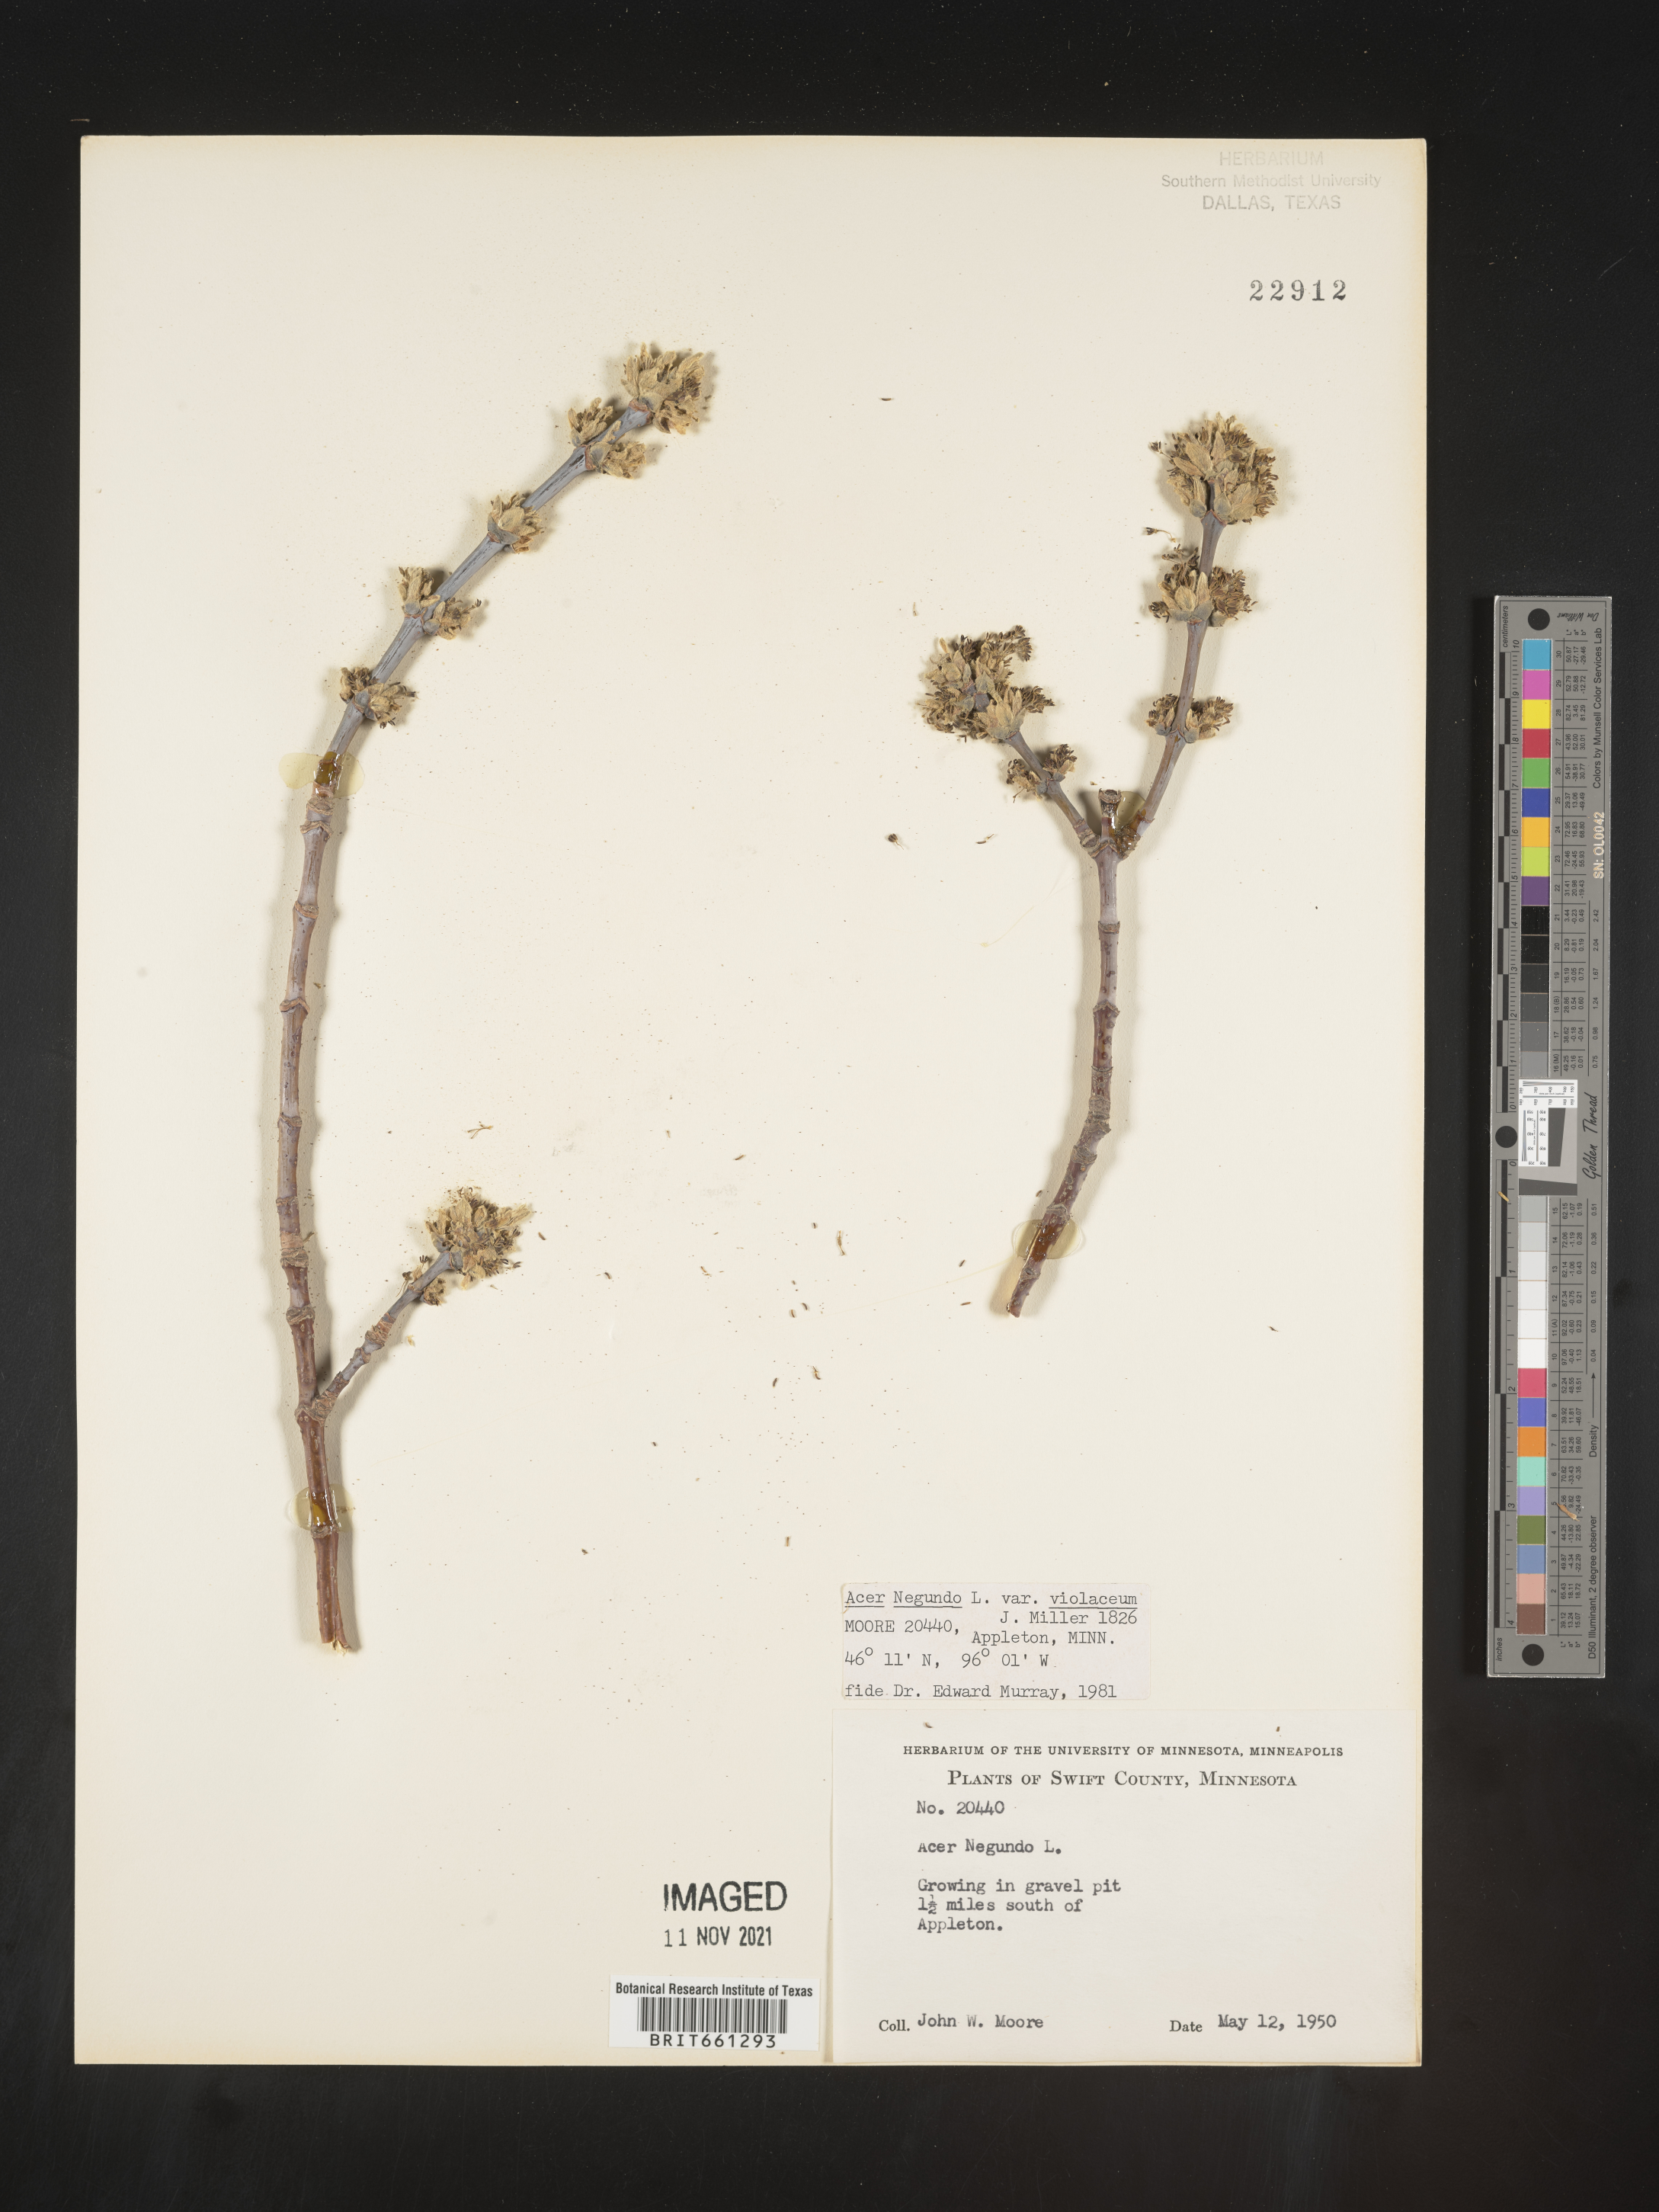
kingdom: Plantae
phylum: Tracheophyta
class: Magnoliopsida
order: Sapindales
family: Sapindaceae
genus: Acer
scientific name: Acer negundo
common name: Ashleaf maple
